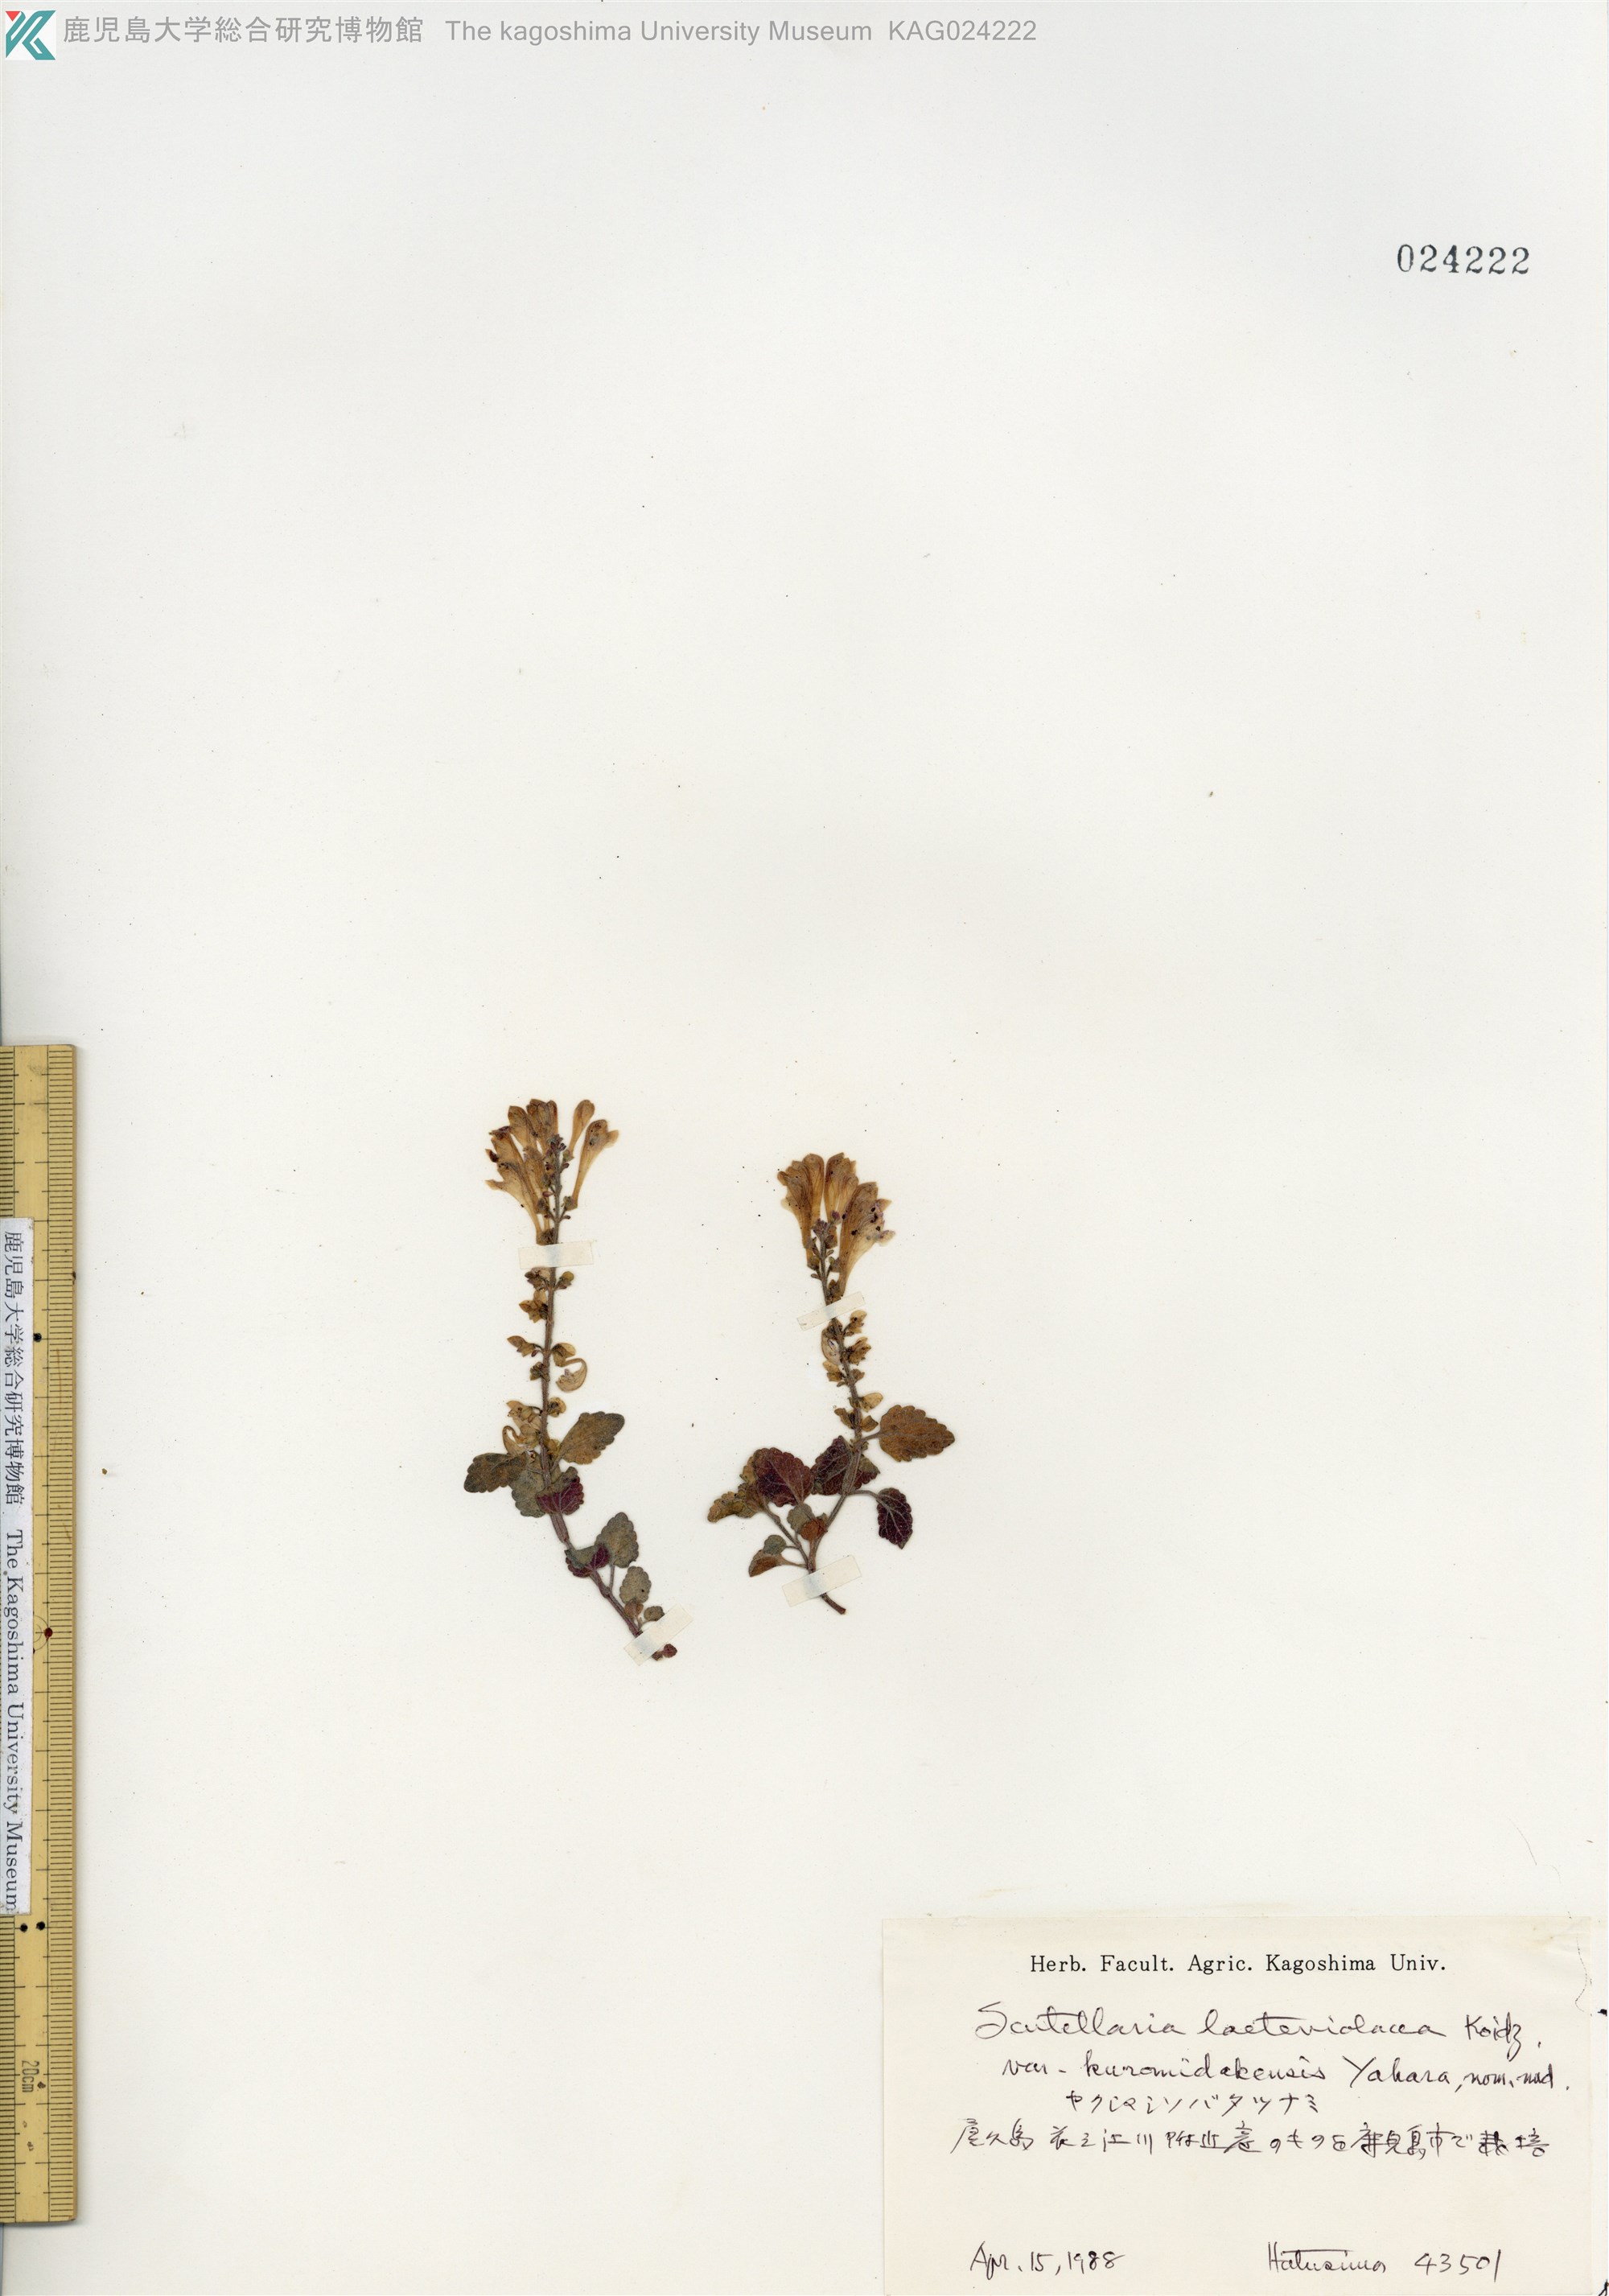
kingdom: Plantae
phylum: Tracheophyta
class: Magnoliopsida
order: Lamiales
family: Lamiaceae
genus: Scutellaria
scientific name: Scutellaria kuromidakensis
